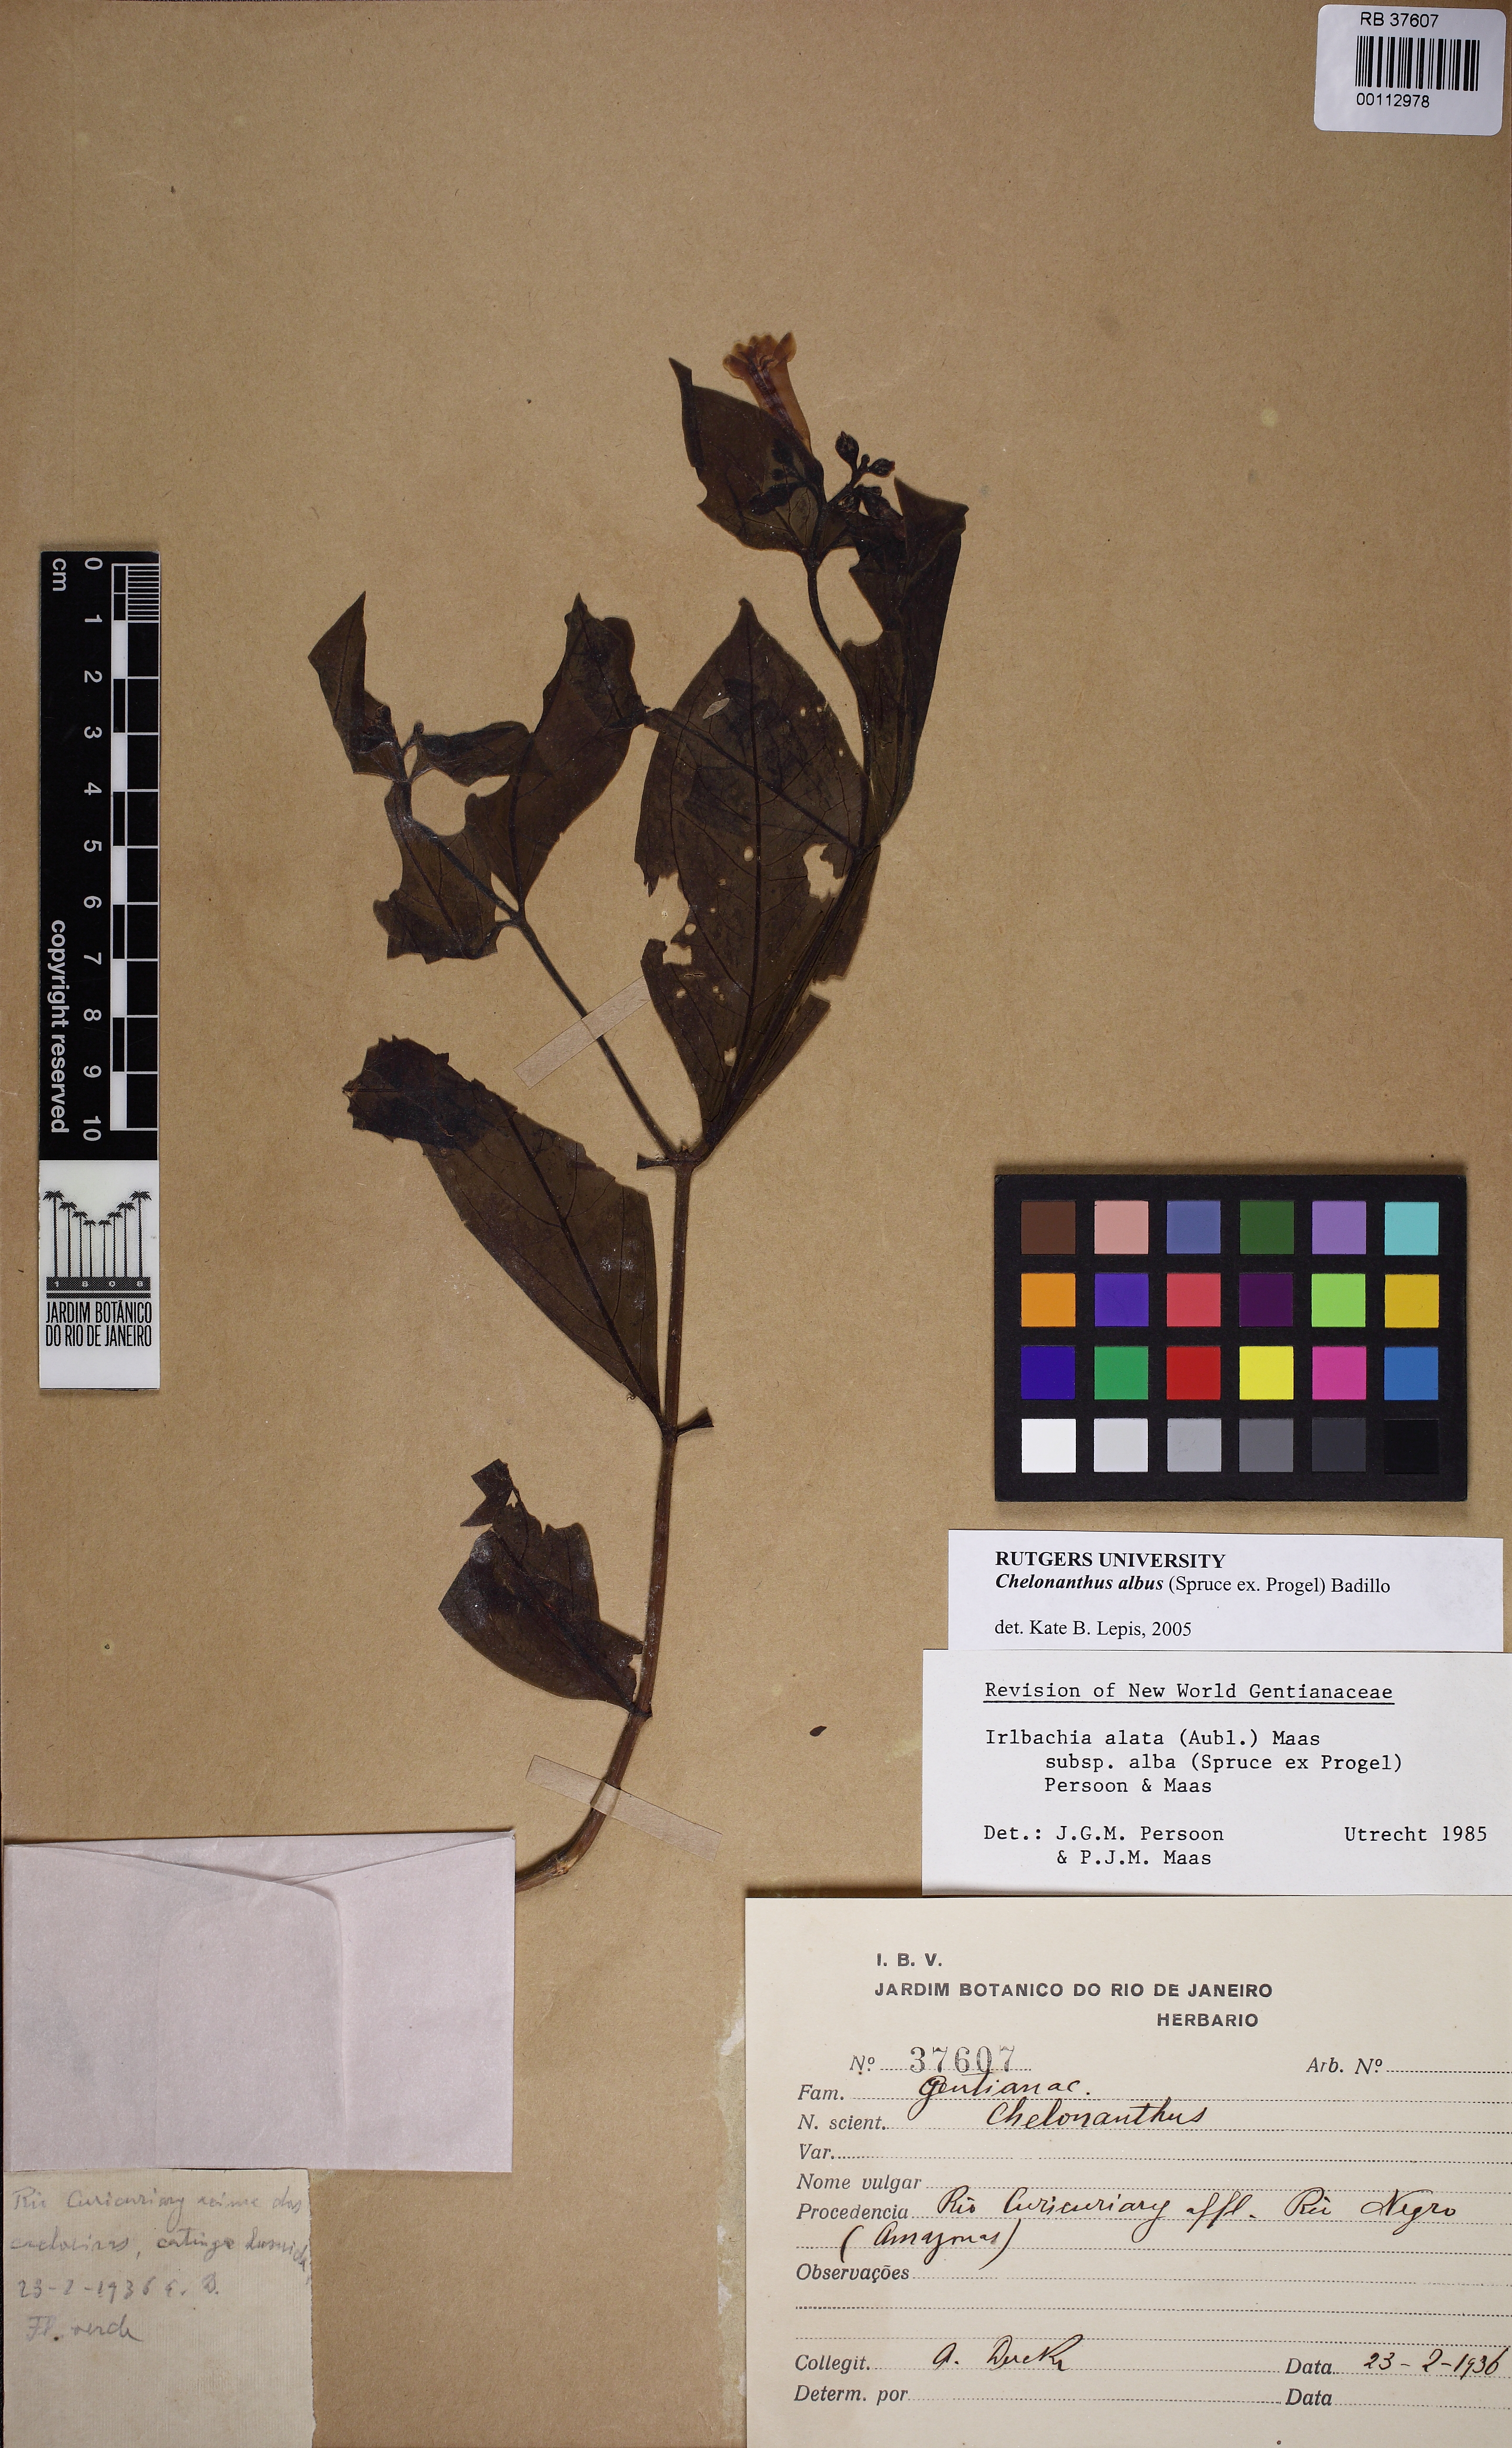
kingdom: Plantae
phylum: Tracheophyta
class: Magnoliopsida
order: Gentianales
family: Gentianaceae
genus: Chelonanthus
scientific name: Chelonanthus albus
